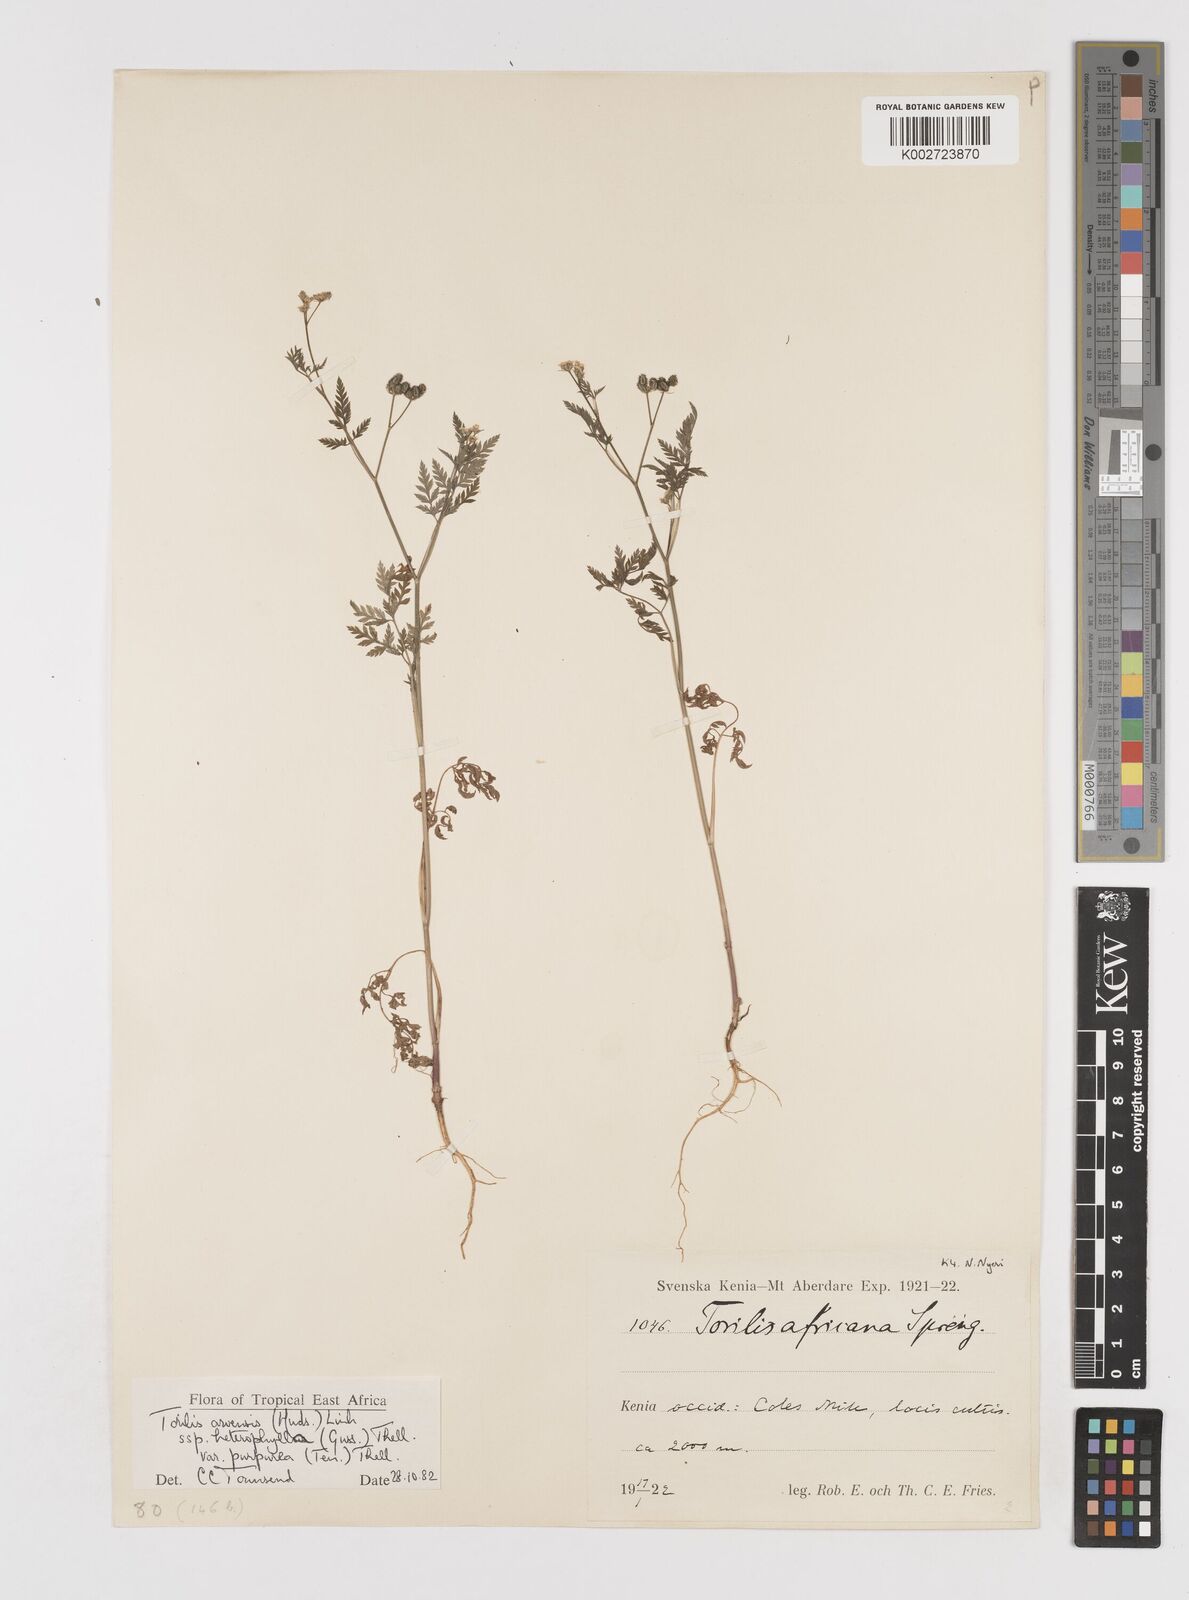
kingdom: Plantae
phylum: Tracheophyta
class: Magnoliopsida
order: Apiales
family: Apiaceae
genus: Torilis
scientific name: Torilis arvensis
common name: Spreading hedge-parsley
